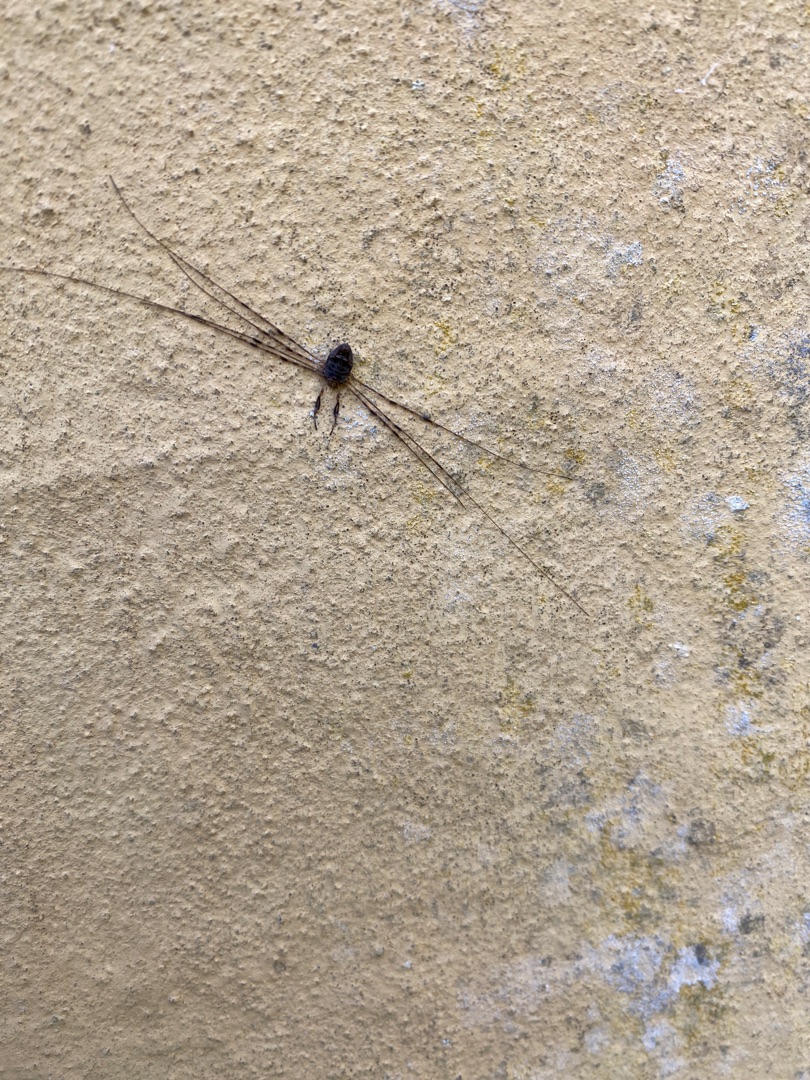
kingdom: Animalia
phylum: Arthropoda
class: Arachnida
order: Opiliones
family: Phalangiidae
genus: Dicranopalpus
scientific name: Dicranopalpus ramosus
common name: Gaffelmejer
